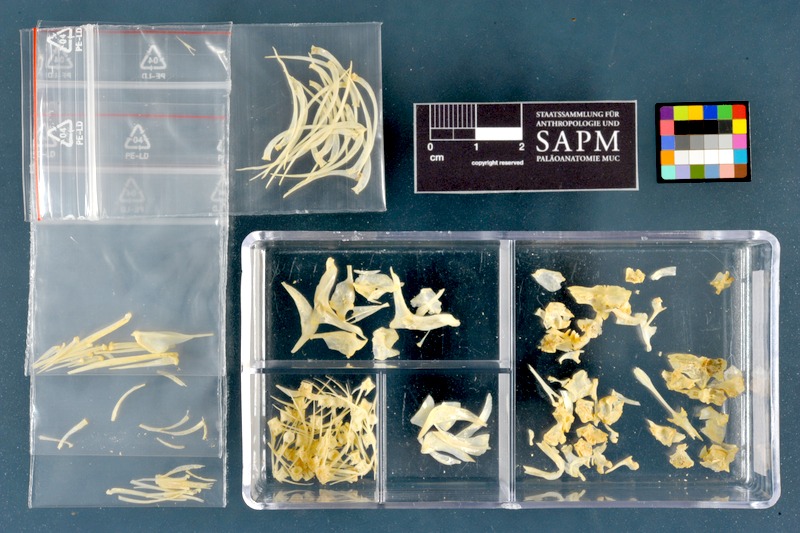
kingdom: Animalia
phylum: Chordata
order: Cypriniformes
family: Cyprinidae
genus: Acanthobrama
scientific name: Acanthobrama marmid
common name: Mesopotamian bream
